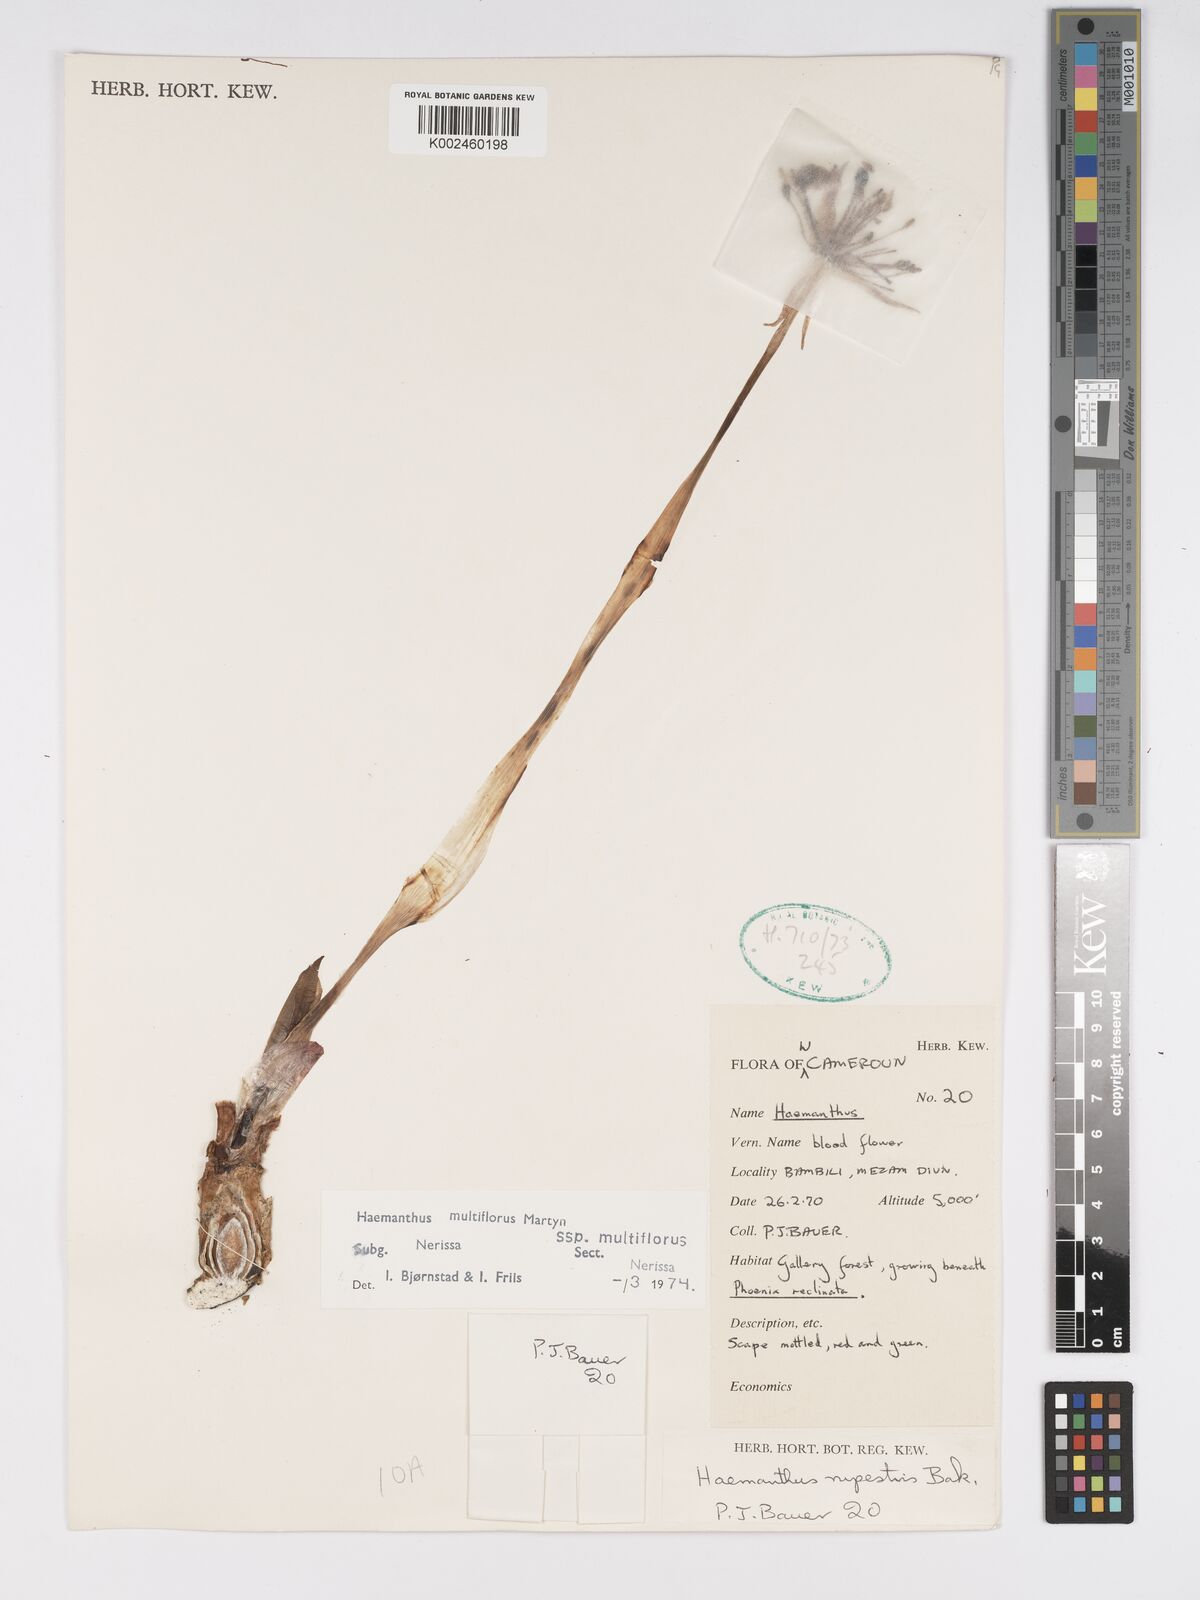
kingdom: Plantae
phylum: Tracheophyta
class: Liliopsida
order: Asparagales
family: Amaryllidaceae
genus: Scadoxus
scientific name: Scadoxus multiflorus
